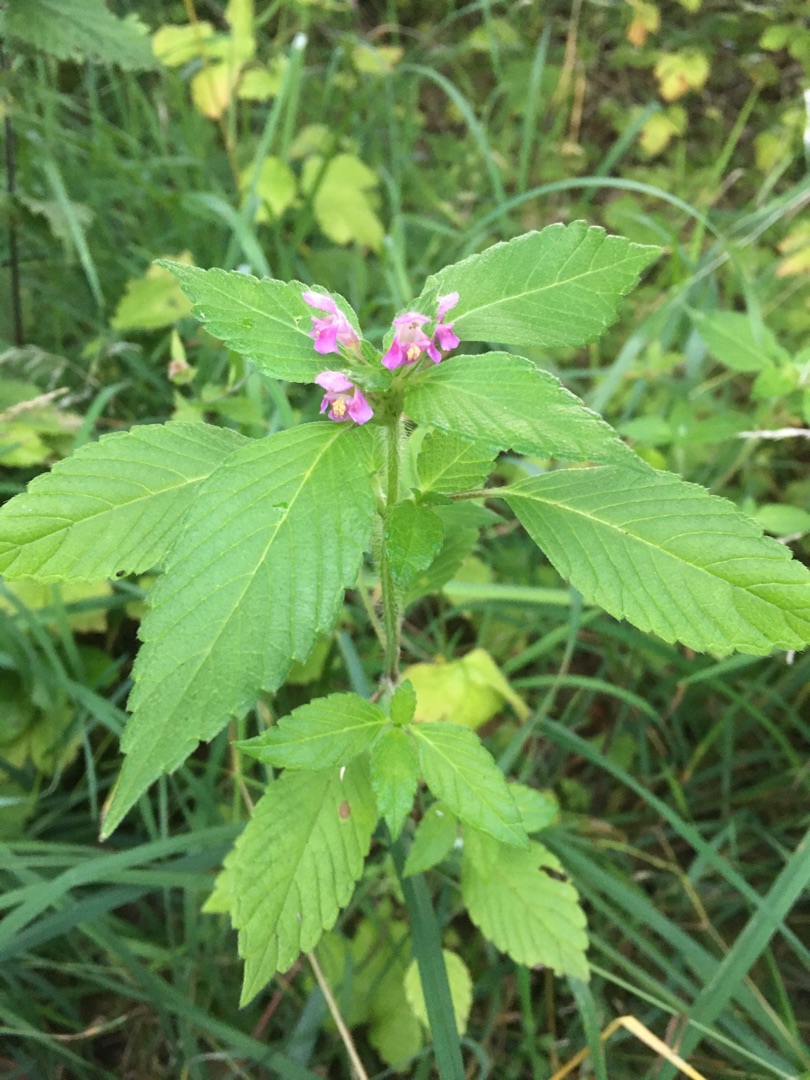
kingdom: Plantae
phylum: Tracheophyta
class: Magnoliopsida
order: Lamiales
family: Lamiaceae
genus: Galeopsis
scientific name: Galeopsis tetrahit
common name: Almindelig hanekro
